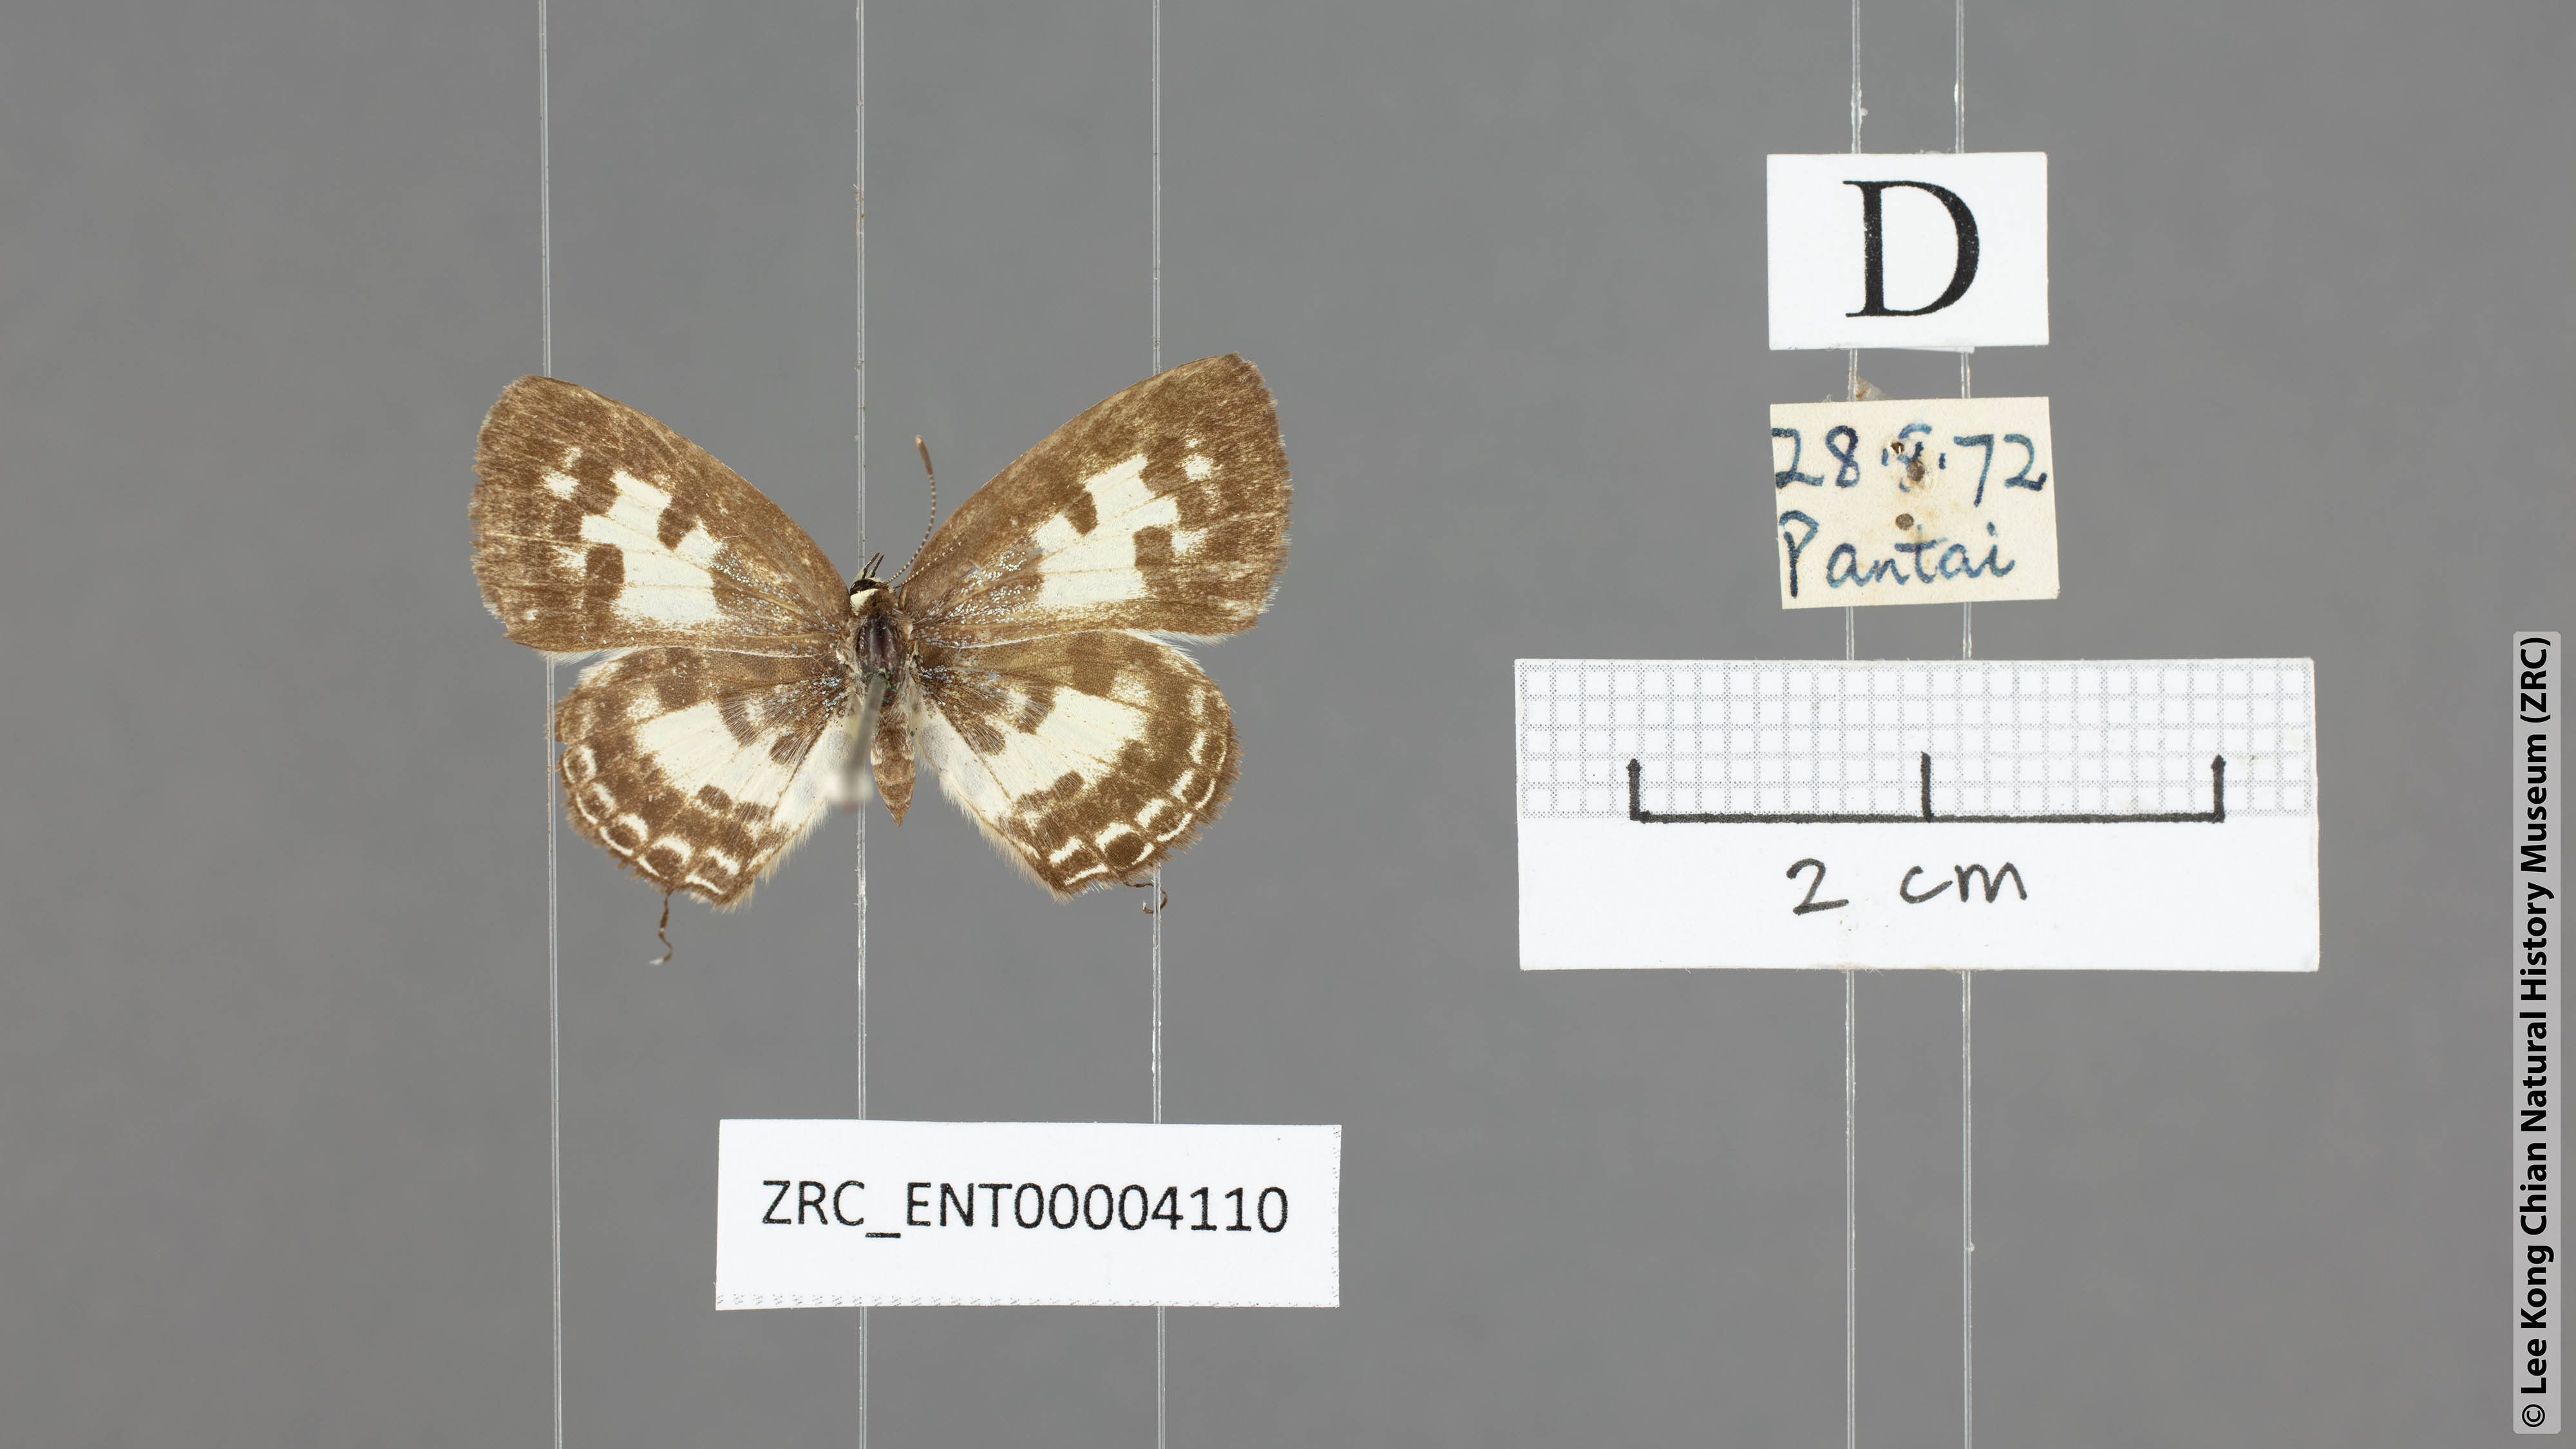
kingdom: Animalia
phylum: Arthropoda
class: Insecta
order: Lepidoptera
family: Lycaenidae
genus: Castalius
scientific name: Castalius rosimon
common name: Common pierrot
